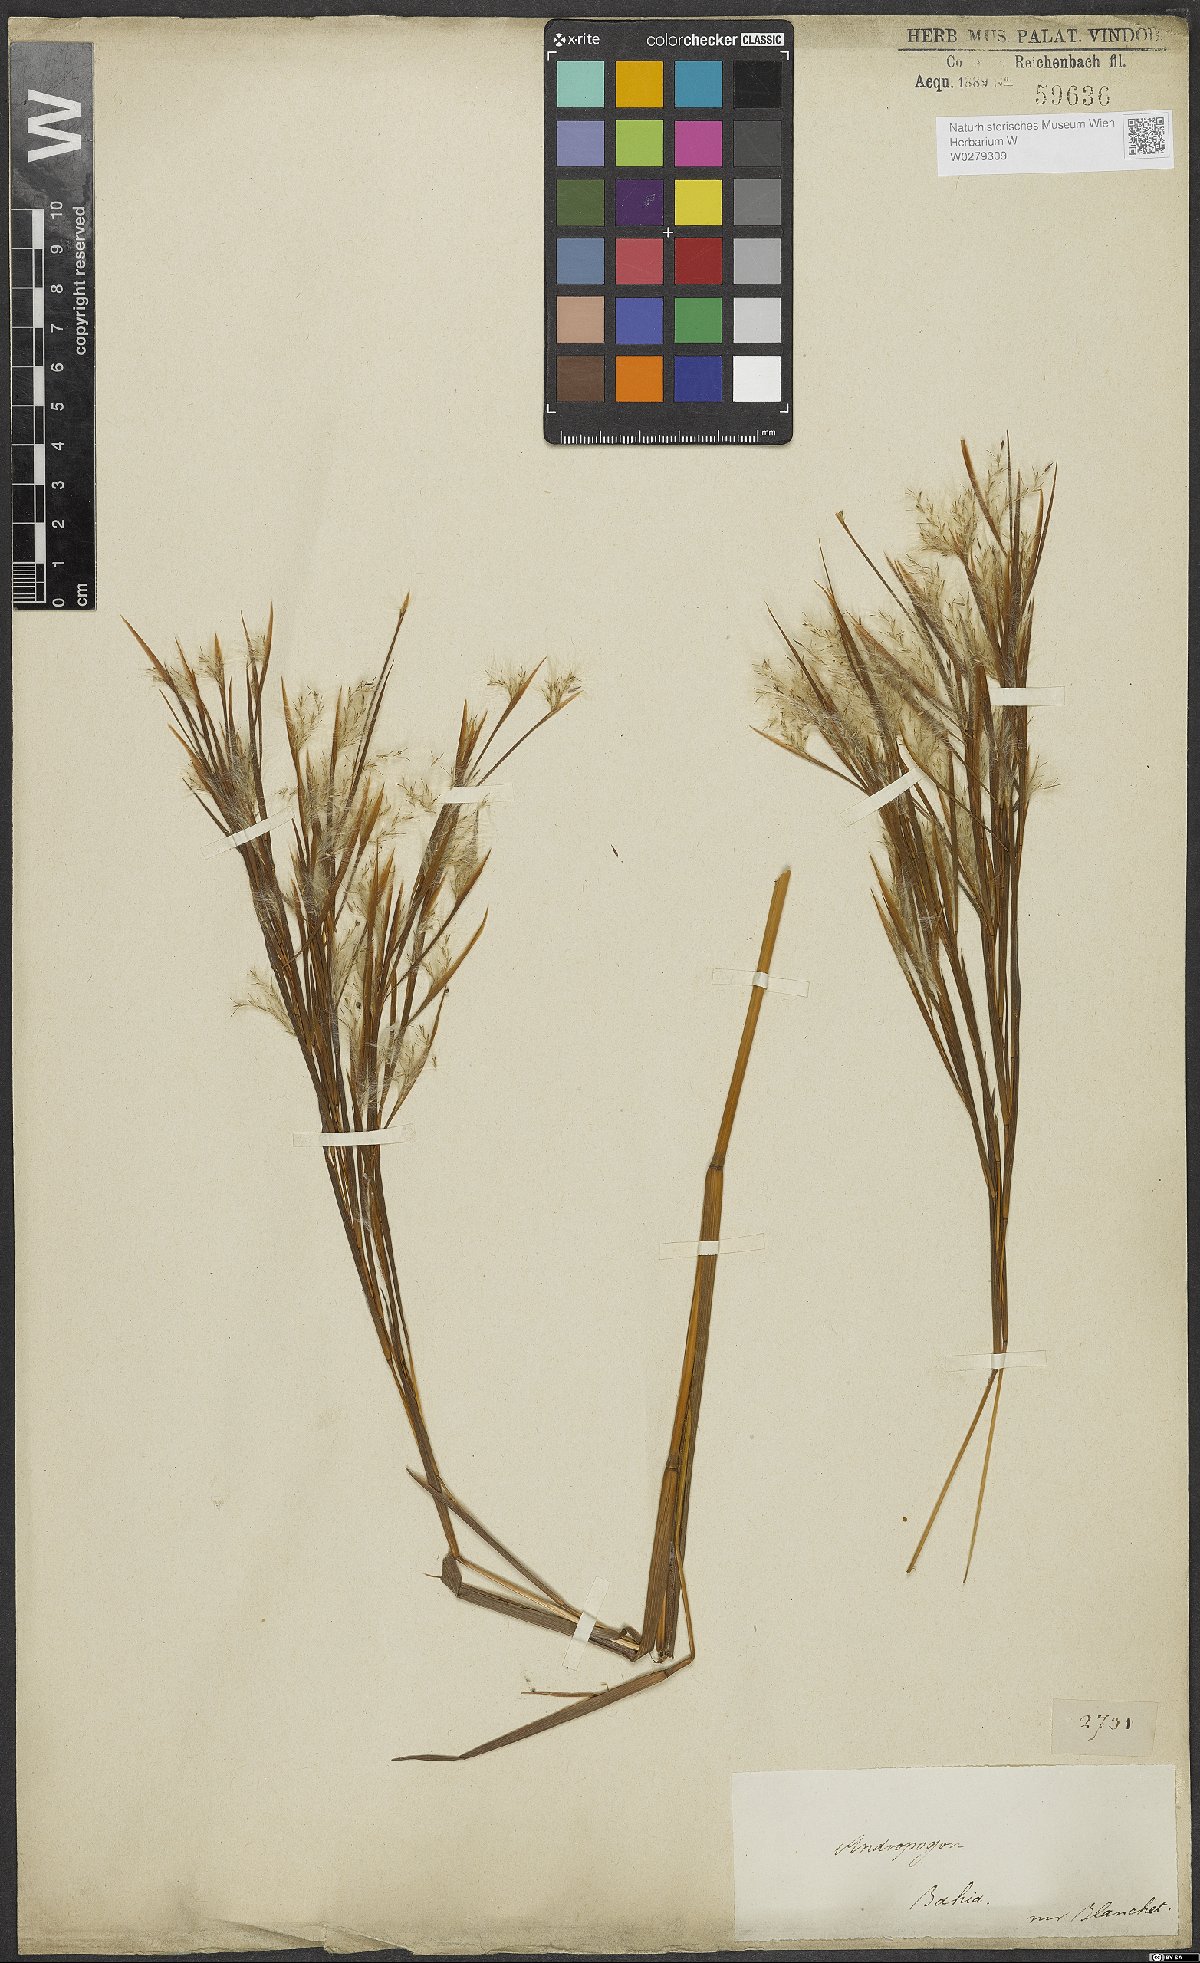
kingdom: Plantae
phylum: Tracheophyta
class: Liliopsida
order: Poales
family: Poaceae
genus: Andropogon
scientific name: Andropogon bicornis
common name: West indian foxtail grass
